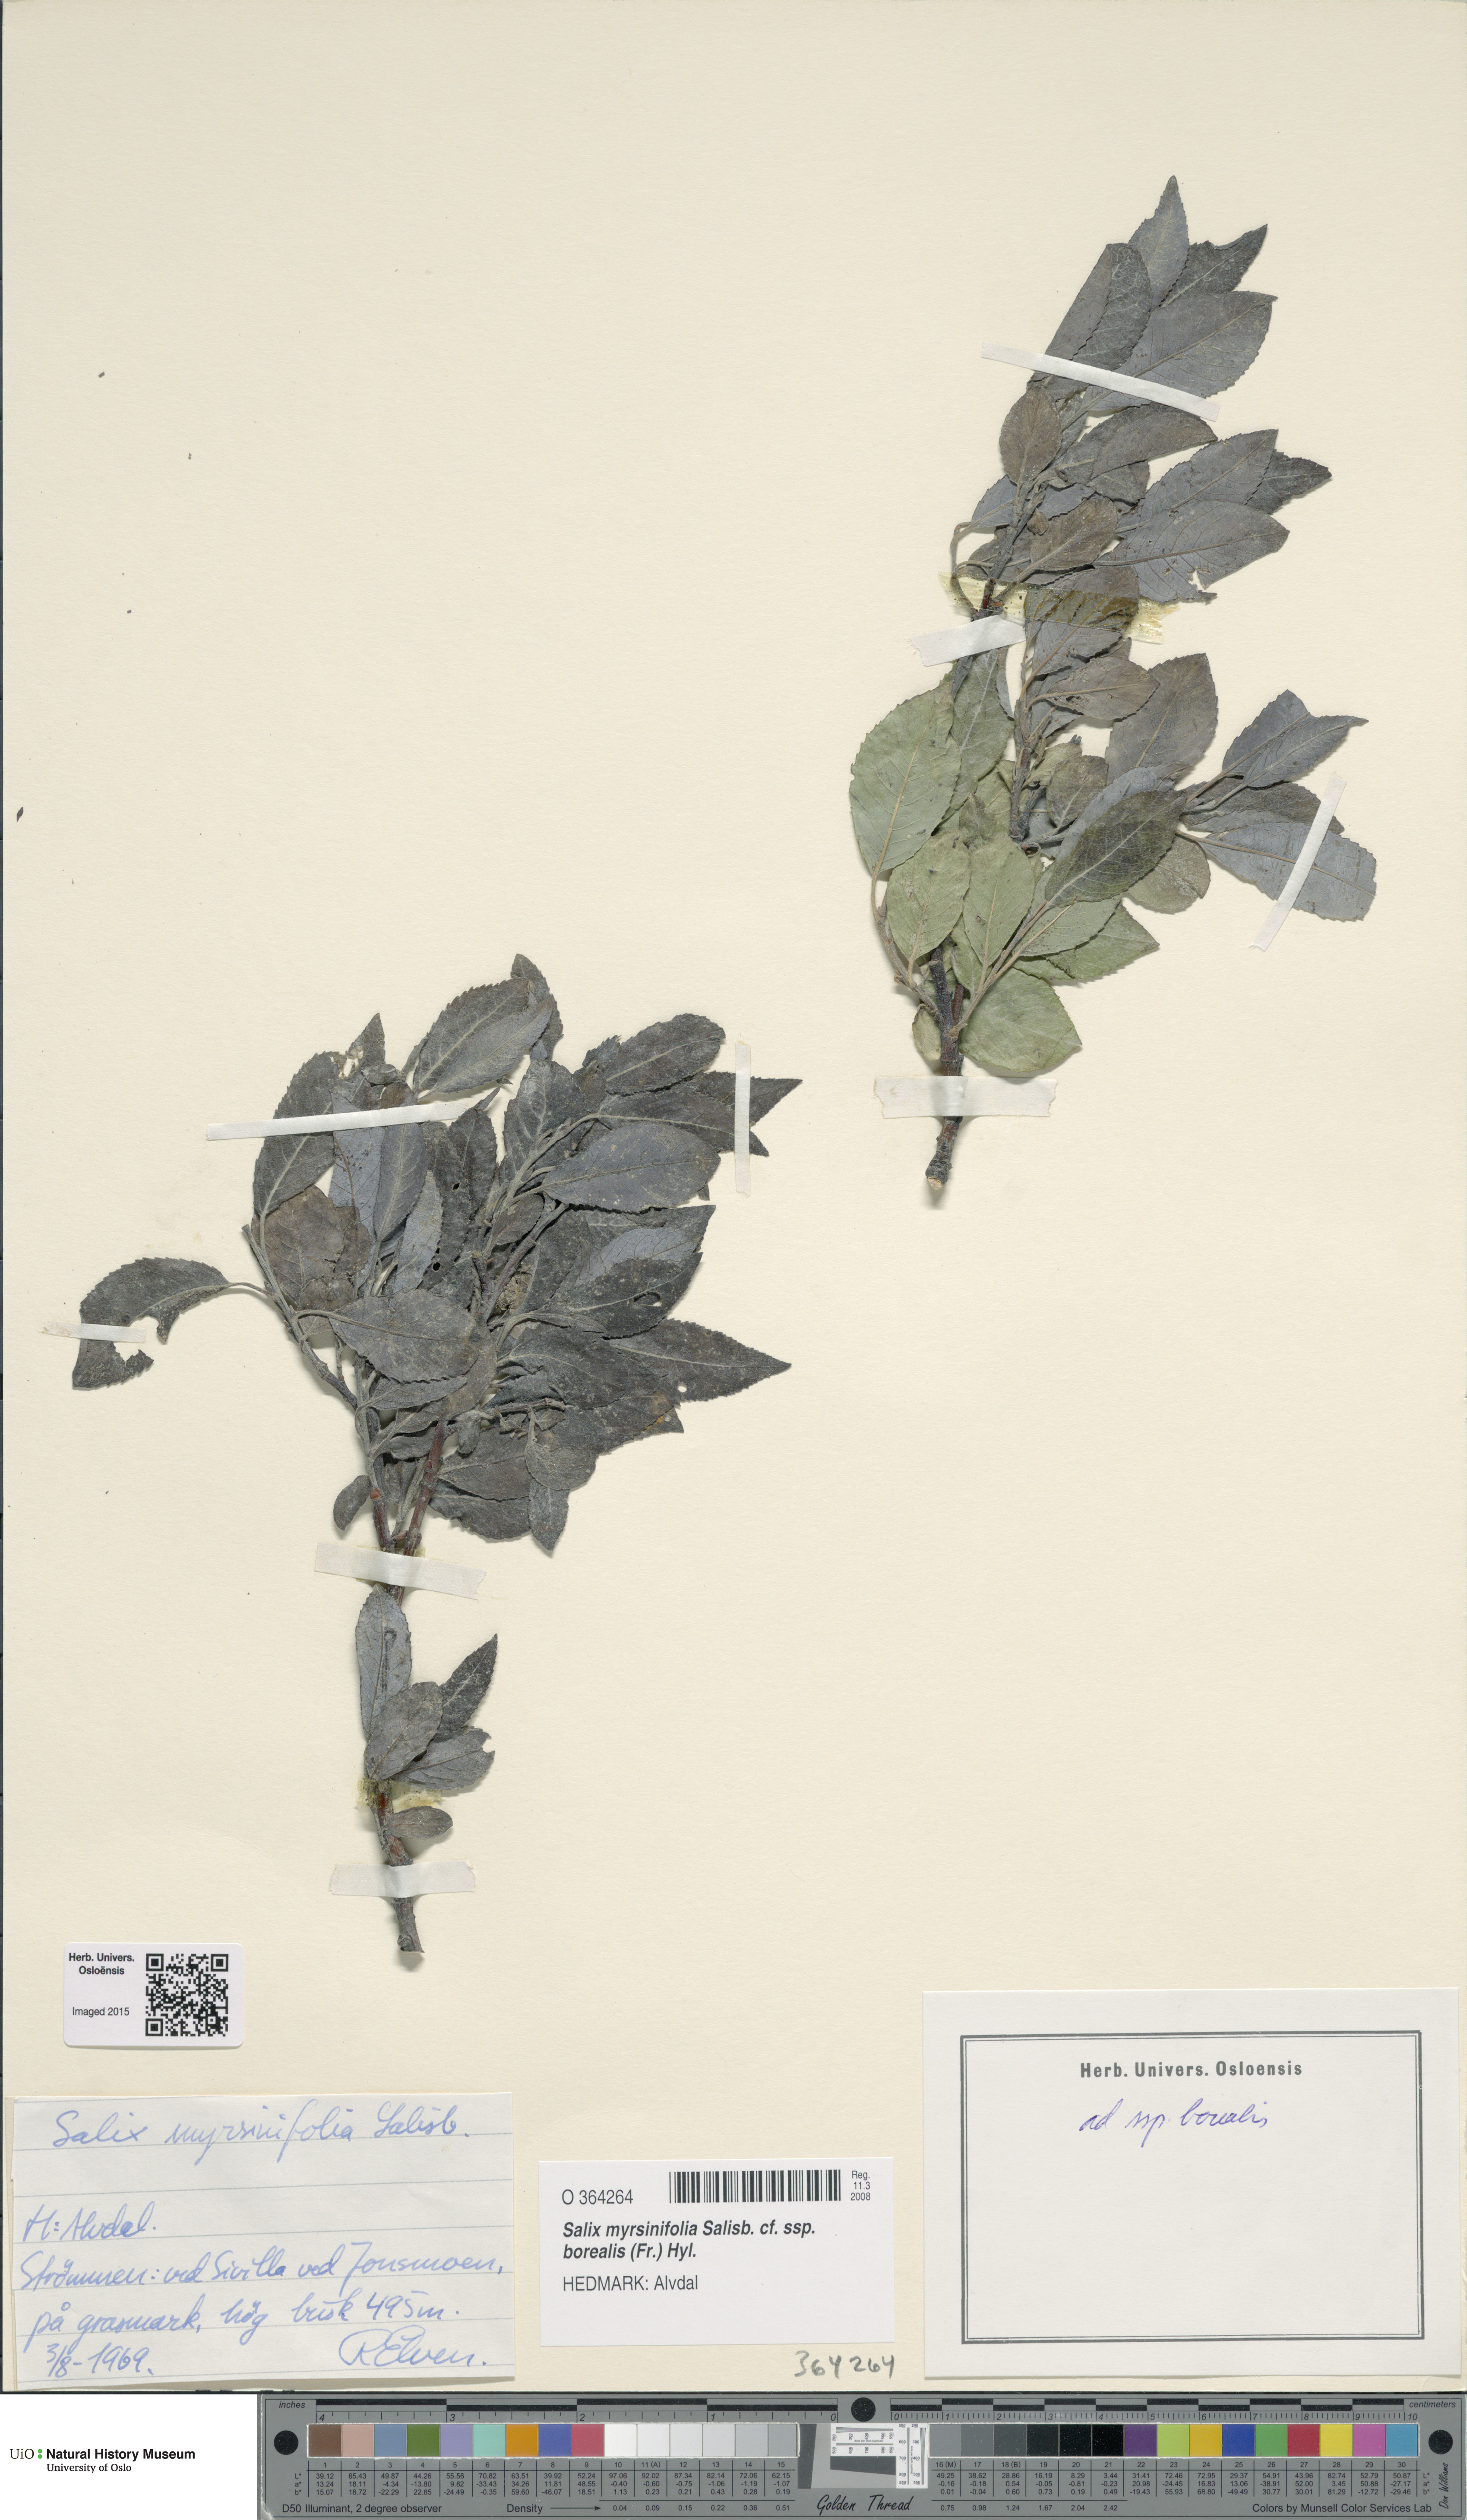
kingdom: Plantae
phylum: Tracheophyta
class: Magnoliopsida
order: Malpighiales
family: Salicaceae
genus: Salix
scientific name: Salix myrsinifolia
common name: Dark-leaved willow
